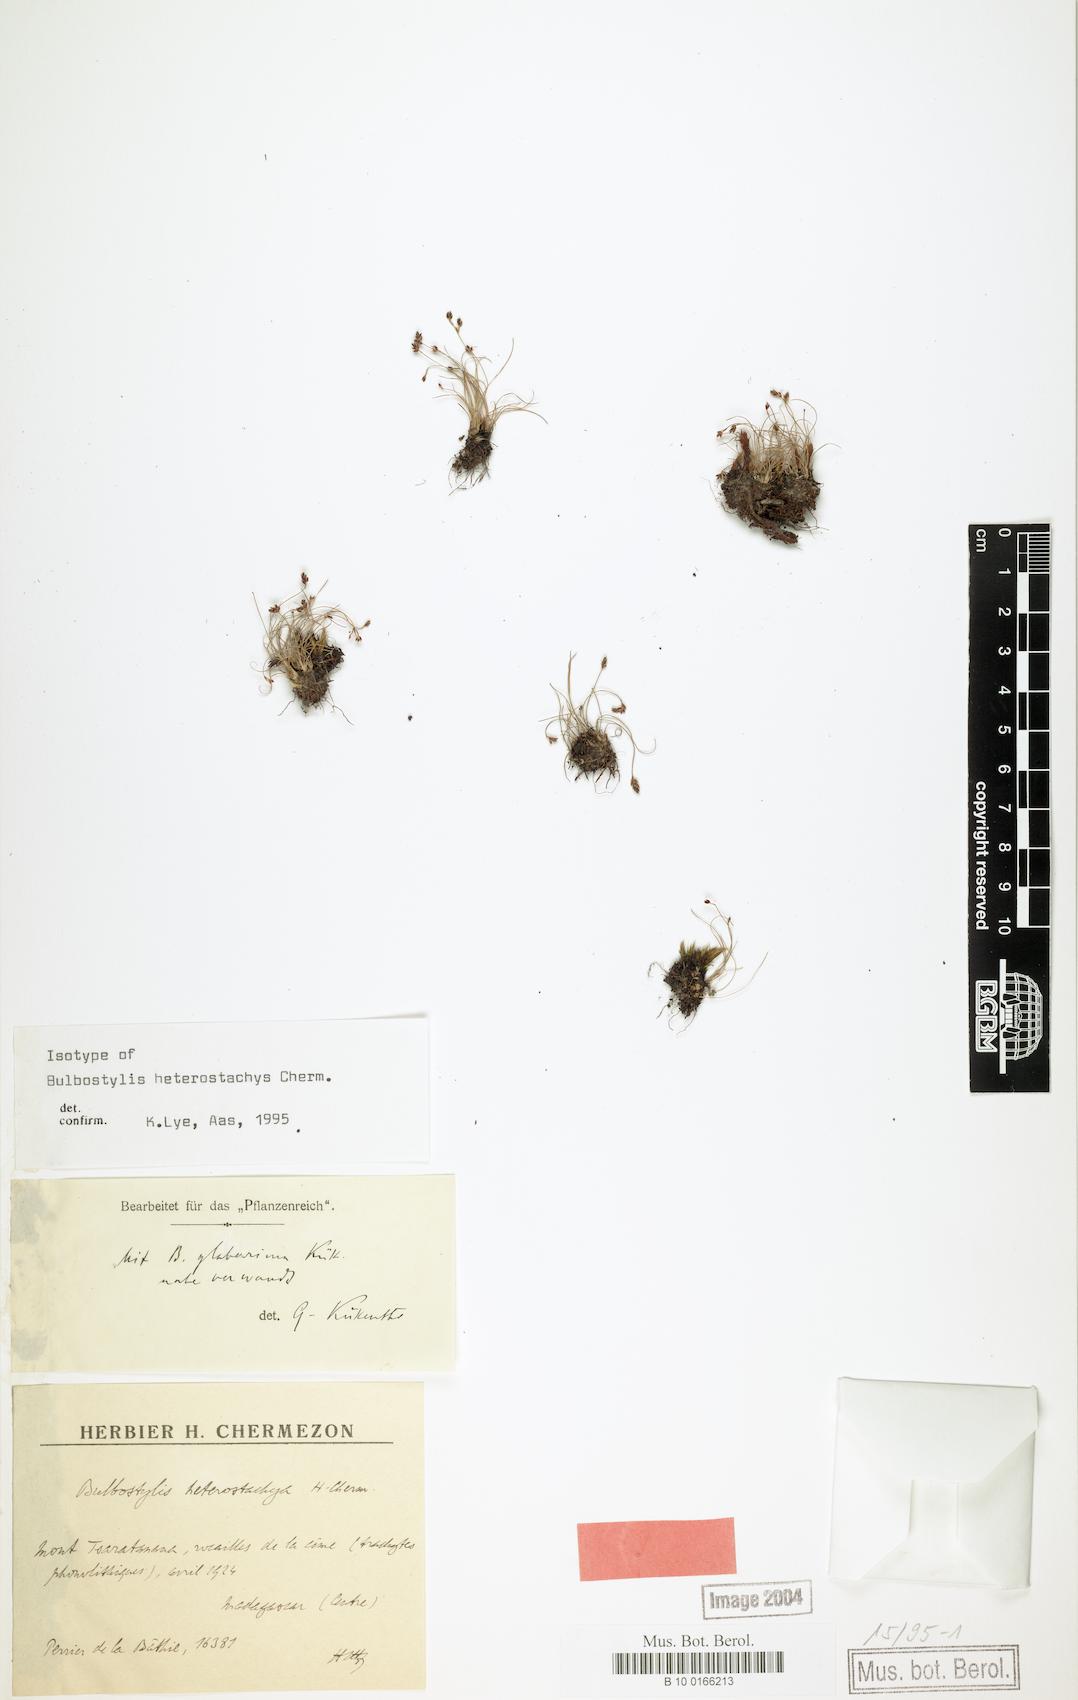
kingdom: Plantae
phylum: Tracheophyta
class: Liliopsida
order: Poales
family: Cyperaceae
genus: Bulbostylis
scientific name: Bulbostylis heterostachya
